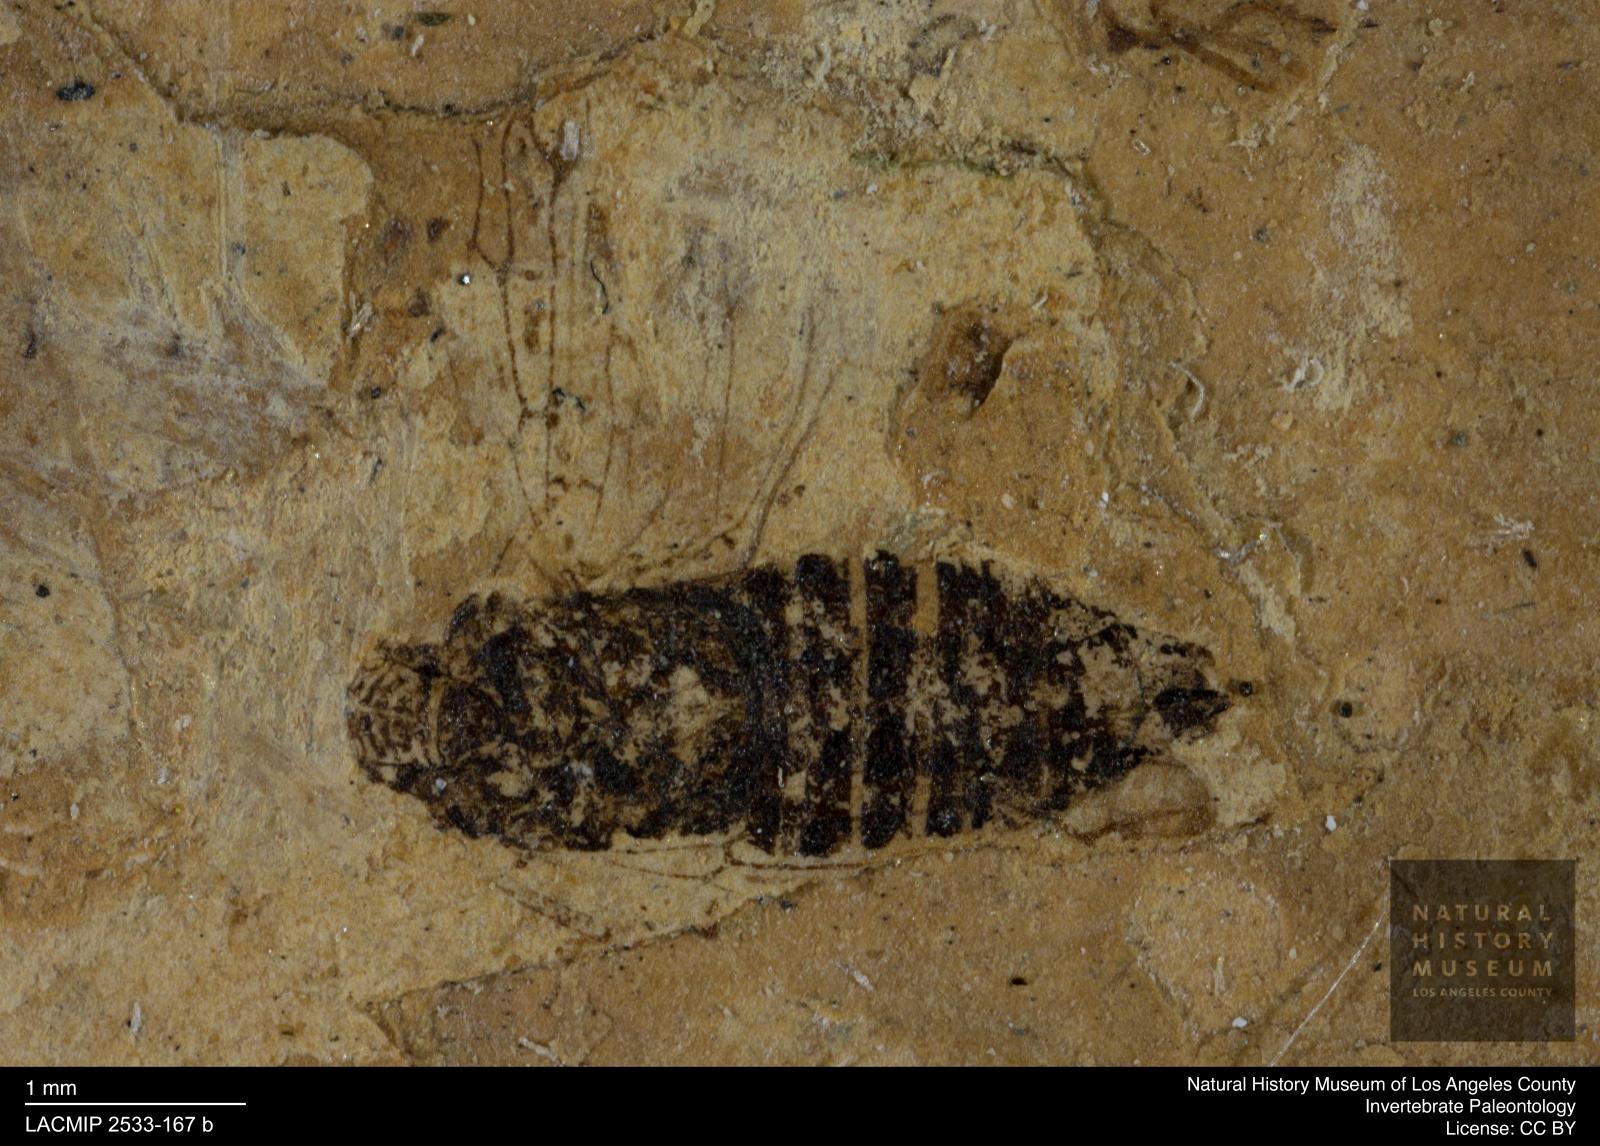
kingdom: Animalia
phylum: Arthropoda
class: Insecta
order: Hemiptera
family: Cicadellidae
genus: Deltocephalus
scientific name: Deltocephalus rottensis
